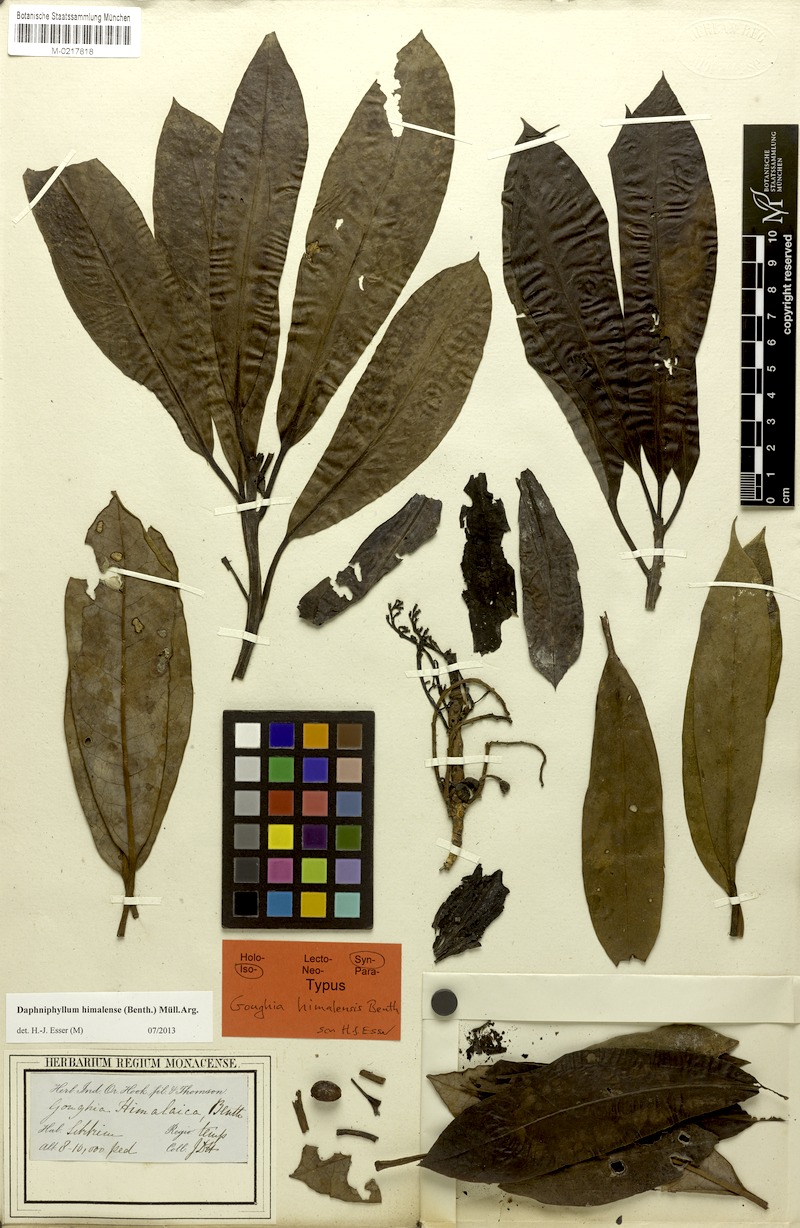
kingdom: Plantae
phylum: Tracheophyta
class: Magnoliopsida
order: Saxifragales
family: Daphniphyllaceae
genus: Daphniphyllum
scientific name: Daphniphyllum himalense
